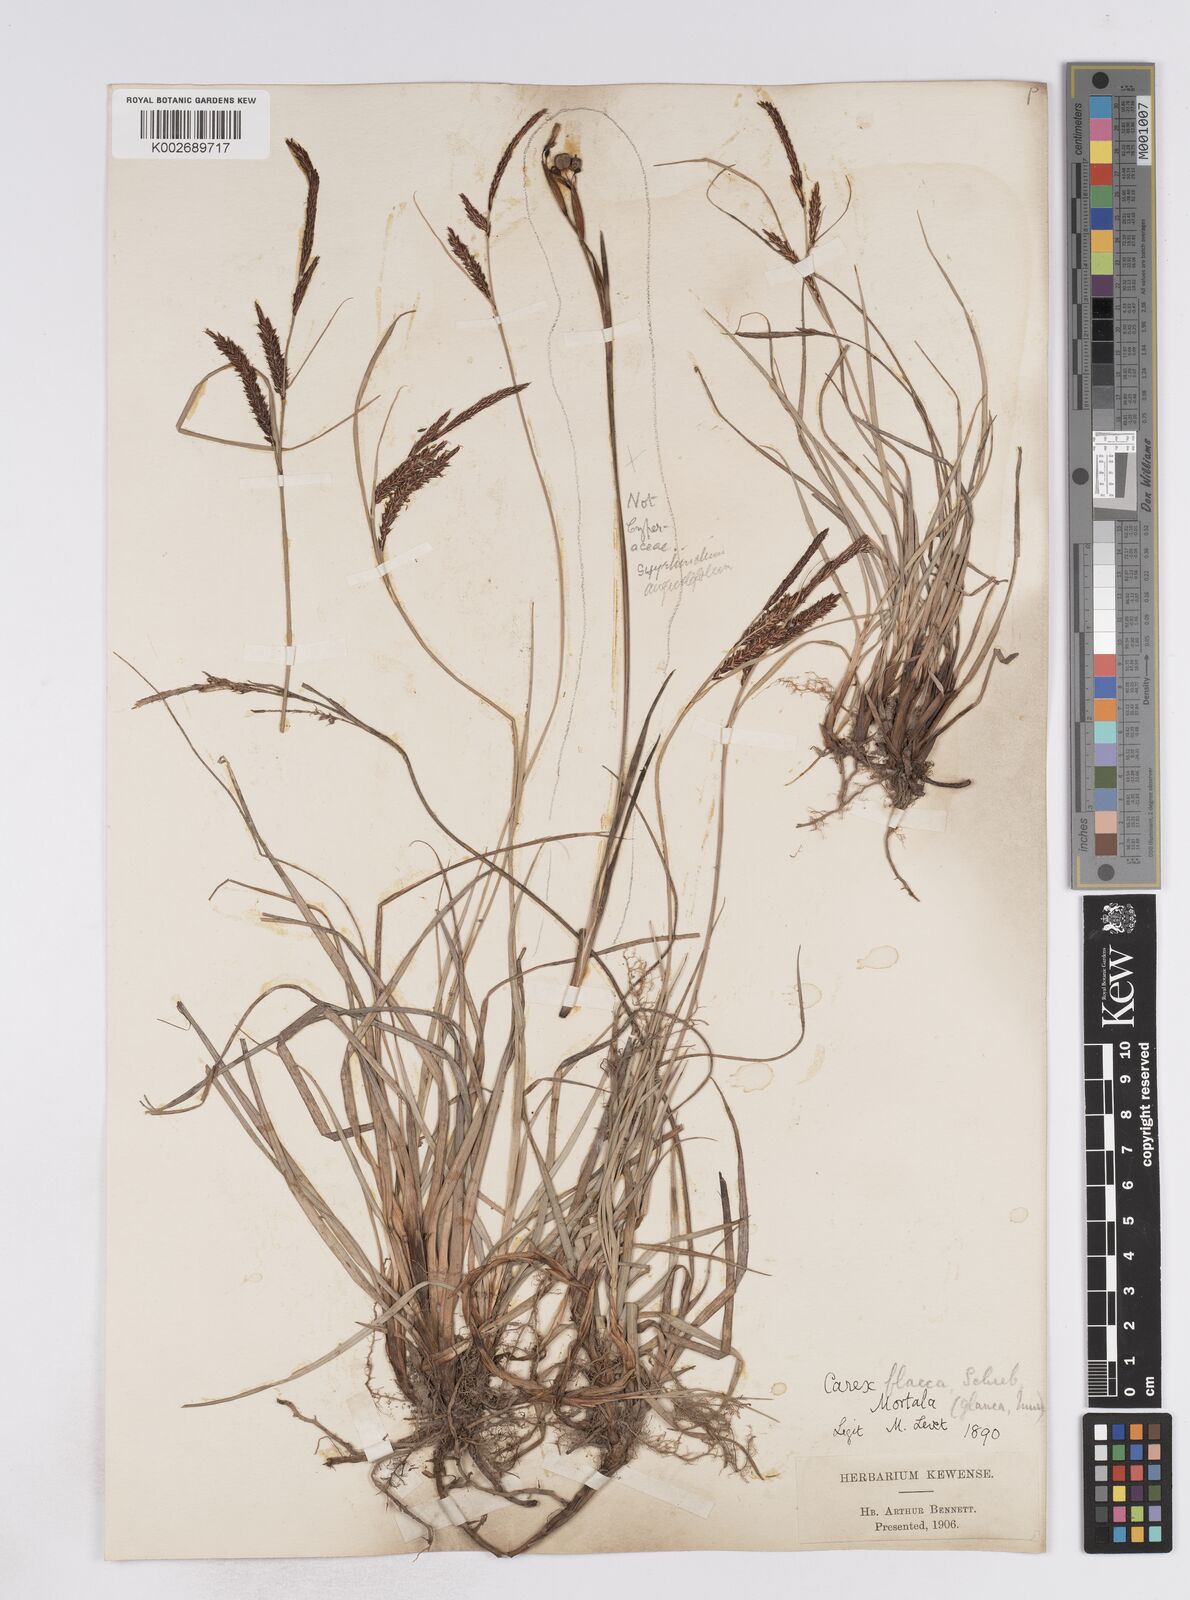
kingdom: Plantae
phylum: Tracheophyta
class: Liliopsida
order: Poales
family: Cyperaceae
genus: Carex
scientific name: Carex flacca
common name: Glaucous sedge
